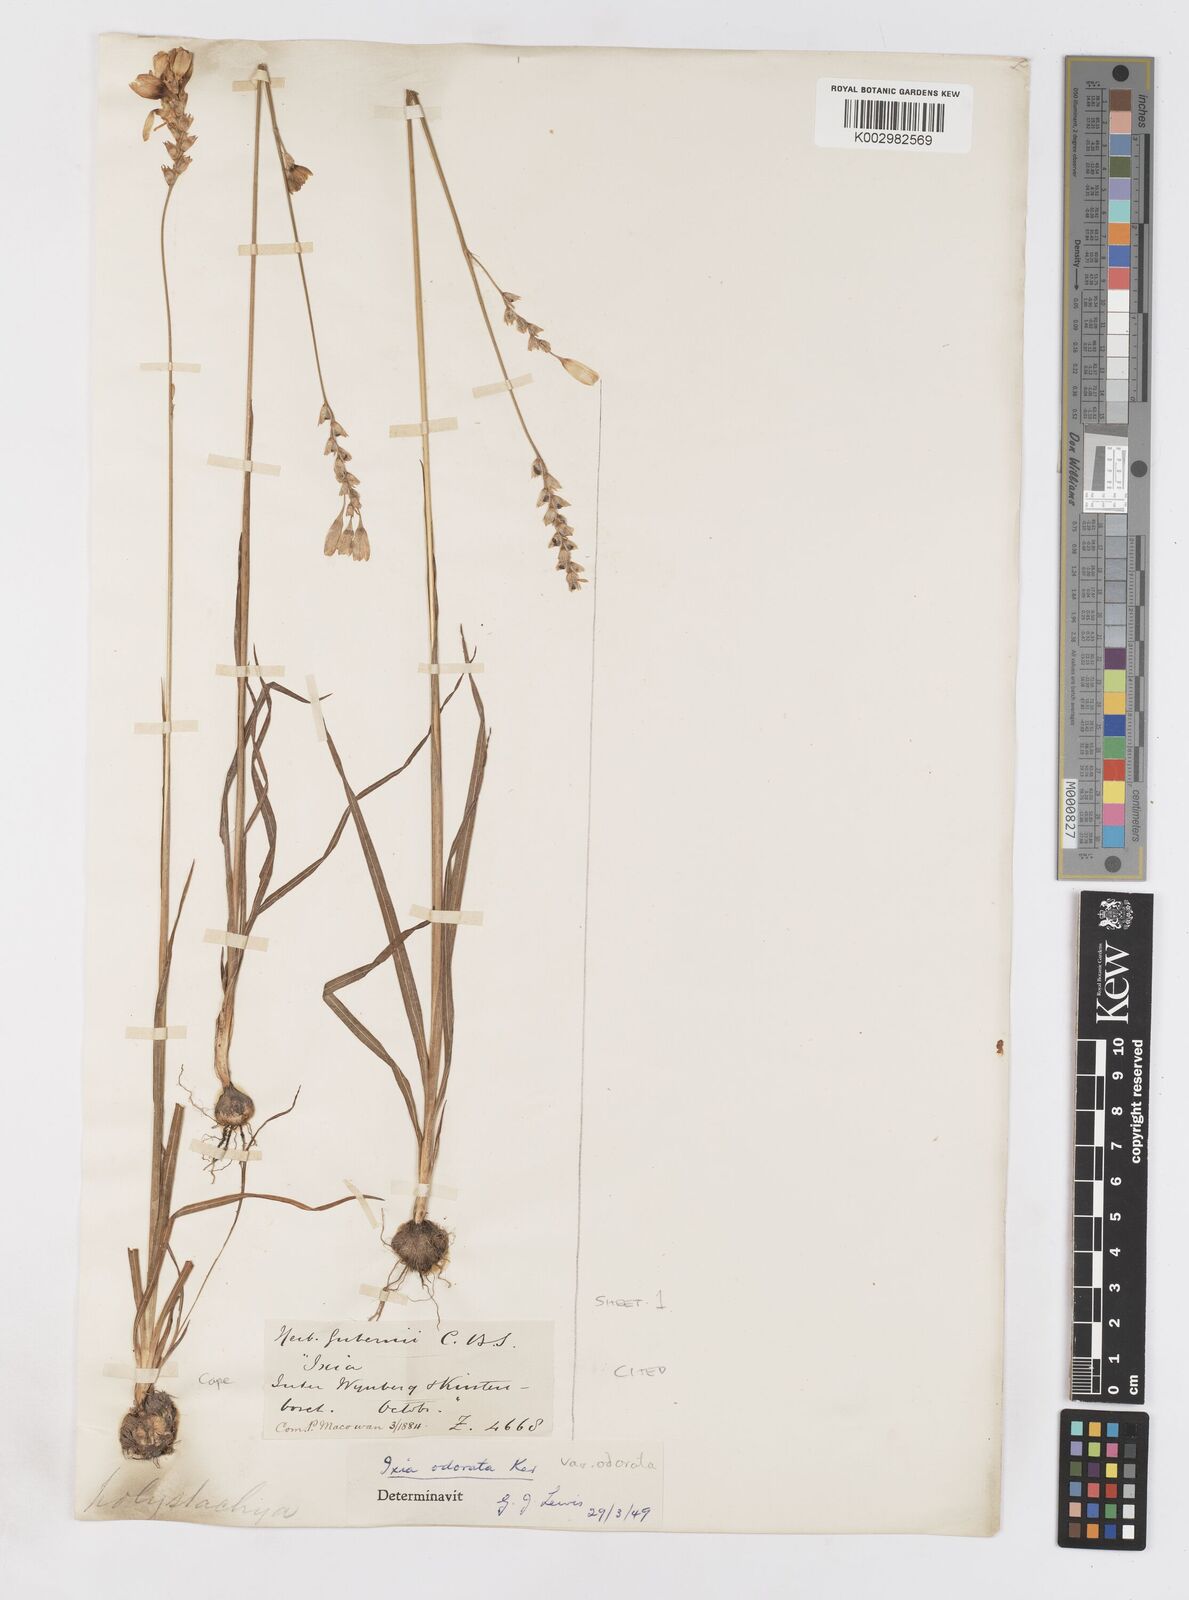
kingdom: Plantae
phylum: Tracheophyta
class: Liliopsida
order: Asparagales
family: Iridaceae
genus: Ixia
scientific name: Ixia odorata
